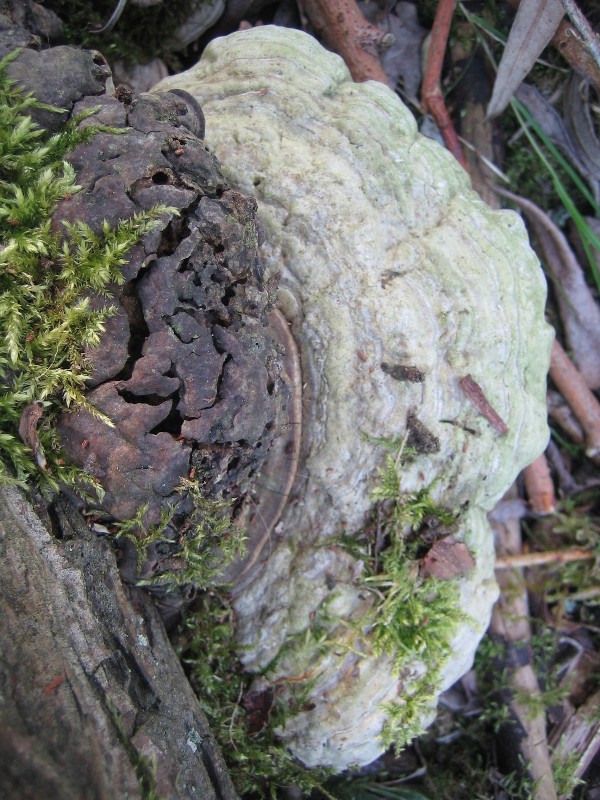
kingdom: Fungi
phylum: Basidiomycota
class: Agaricomycetes
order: Polyporales
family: Polyporaceae
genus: Ganoderma
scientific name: Ganoderma applanatum
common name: flad lakporesvamp
